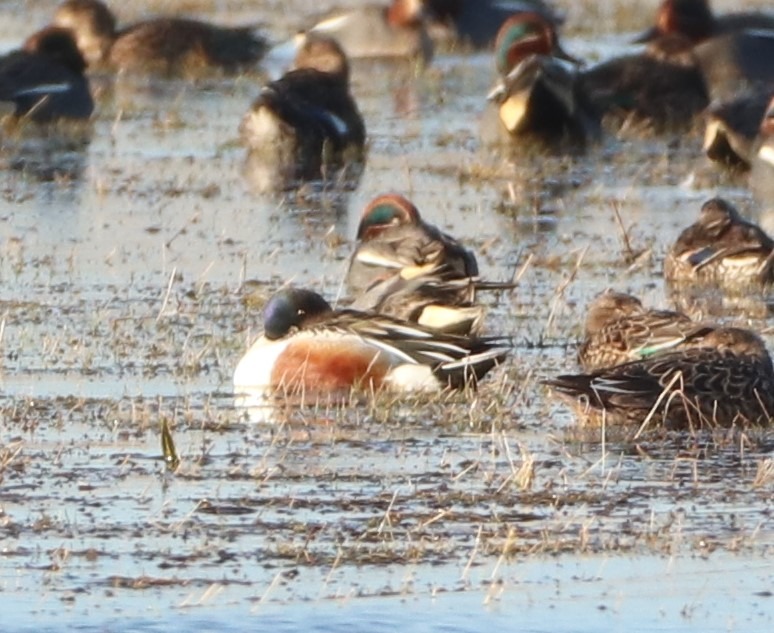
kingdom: Animalia
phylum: Chordata
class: Aves
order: Anseriformes
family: Anatidae
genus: Spatula
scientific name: Spatula clypeata
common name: Skeand
